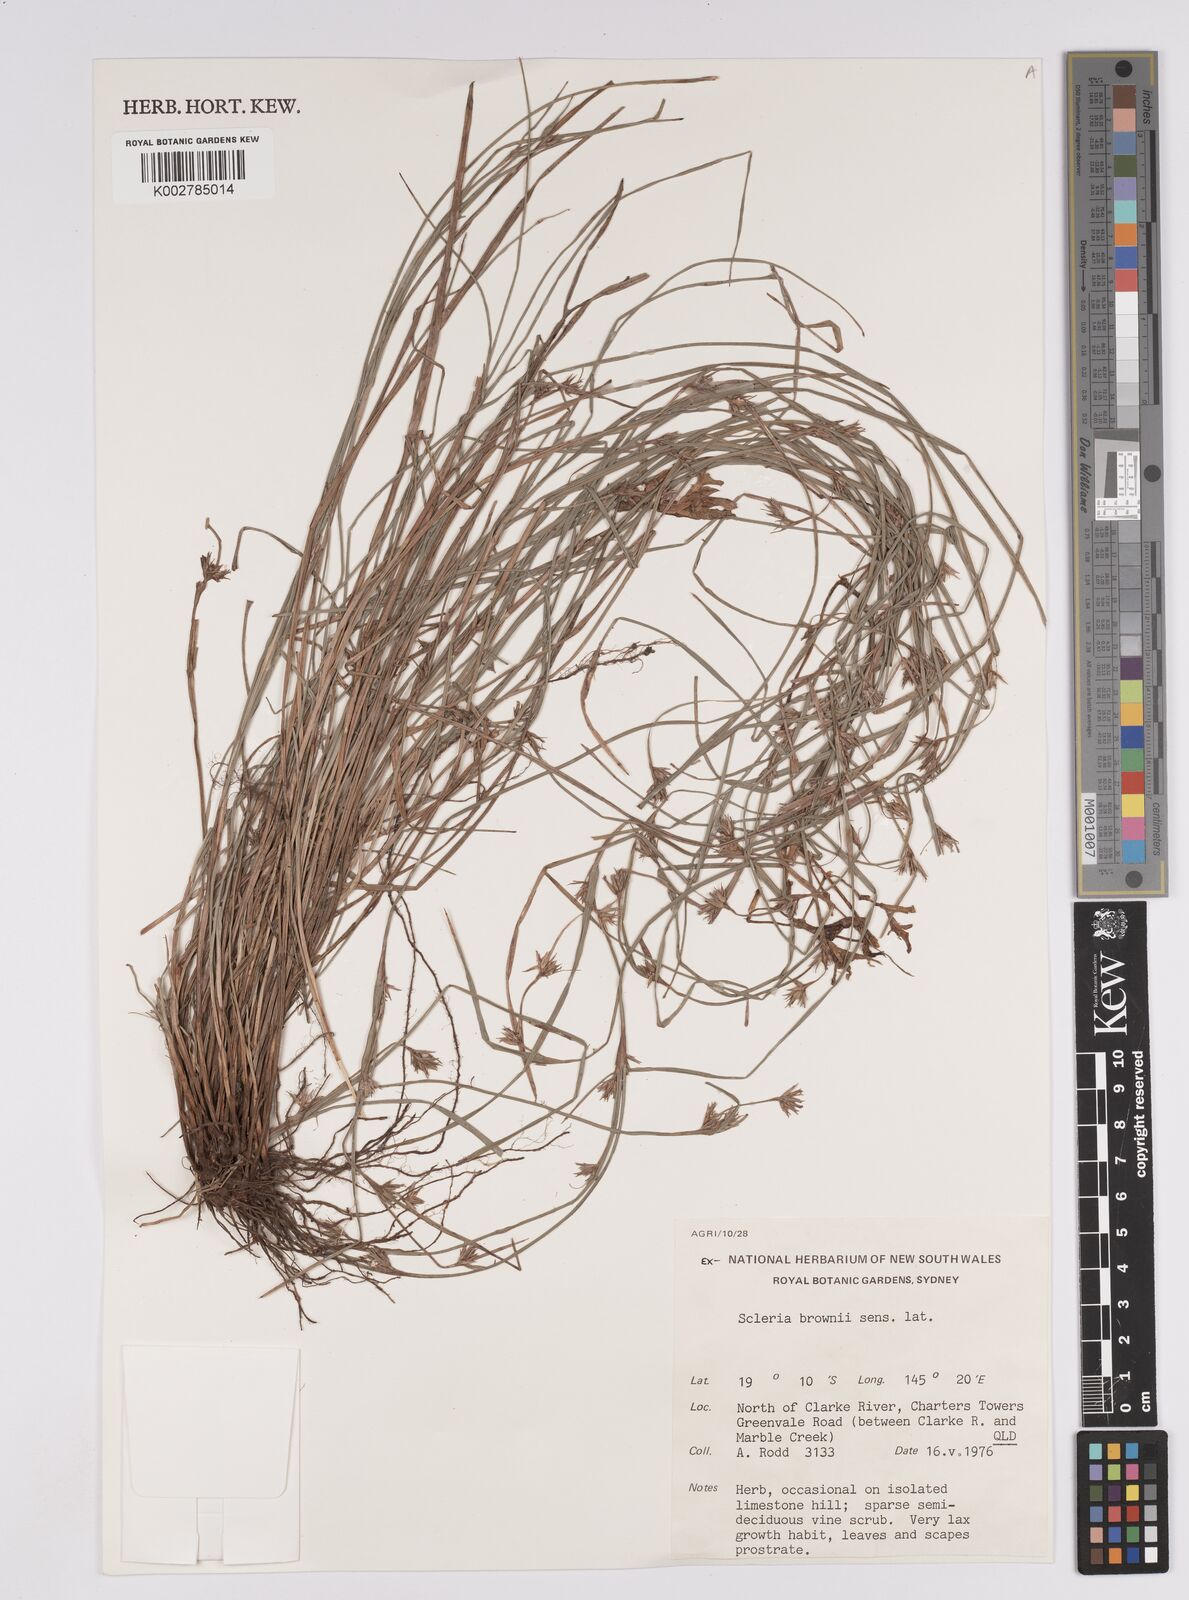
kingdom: Plantae
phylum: Tracheophyta
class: Liliopsida
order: Poales
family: Cyperaceae
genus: Scleria
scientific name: Scleria brownii
